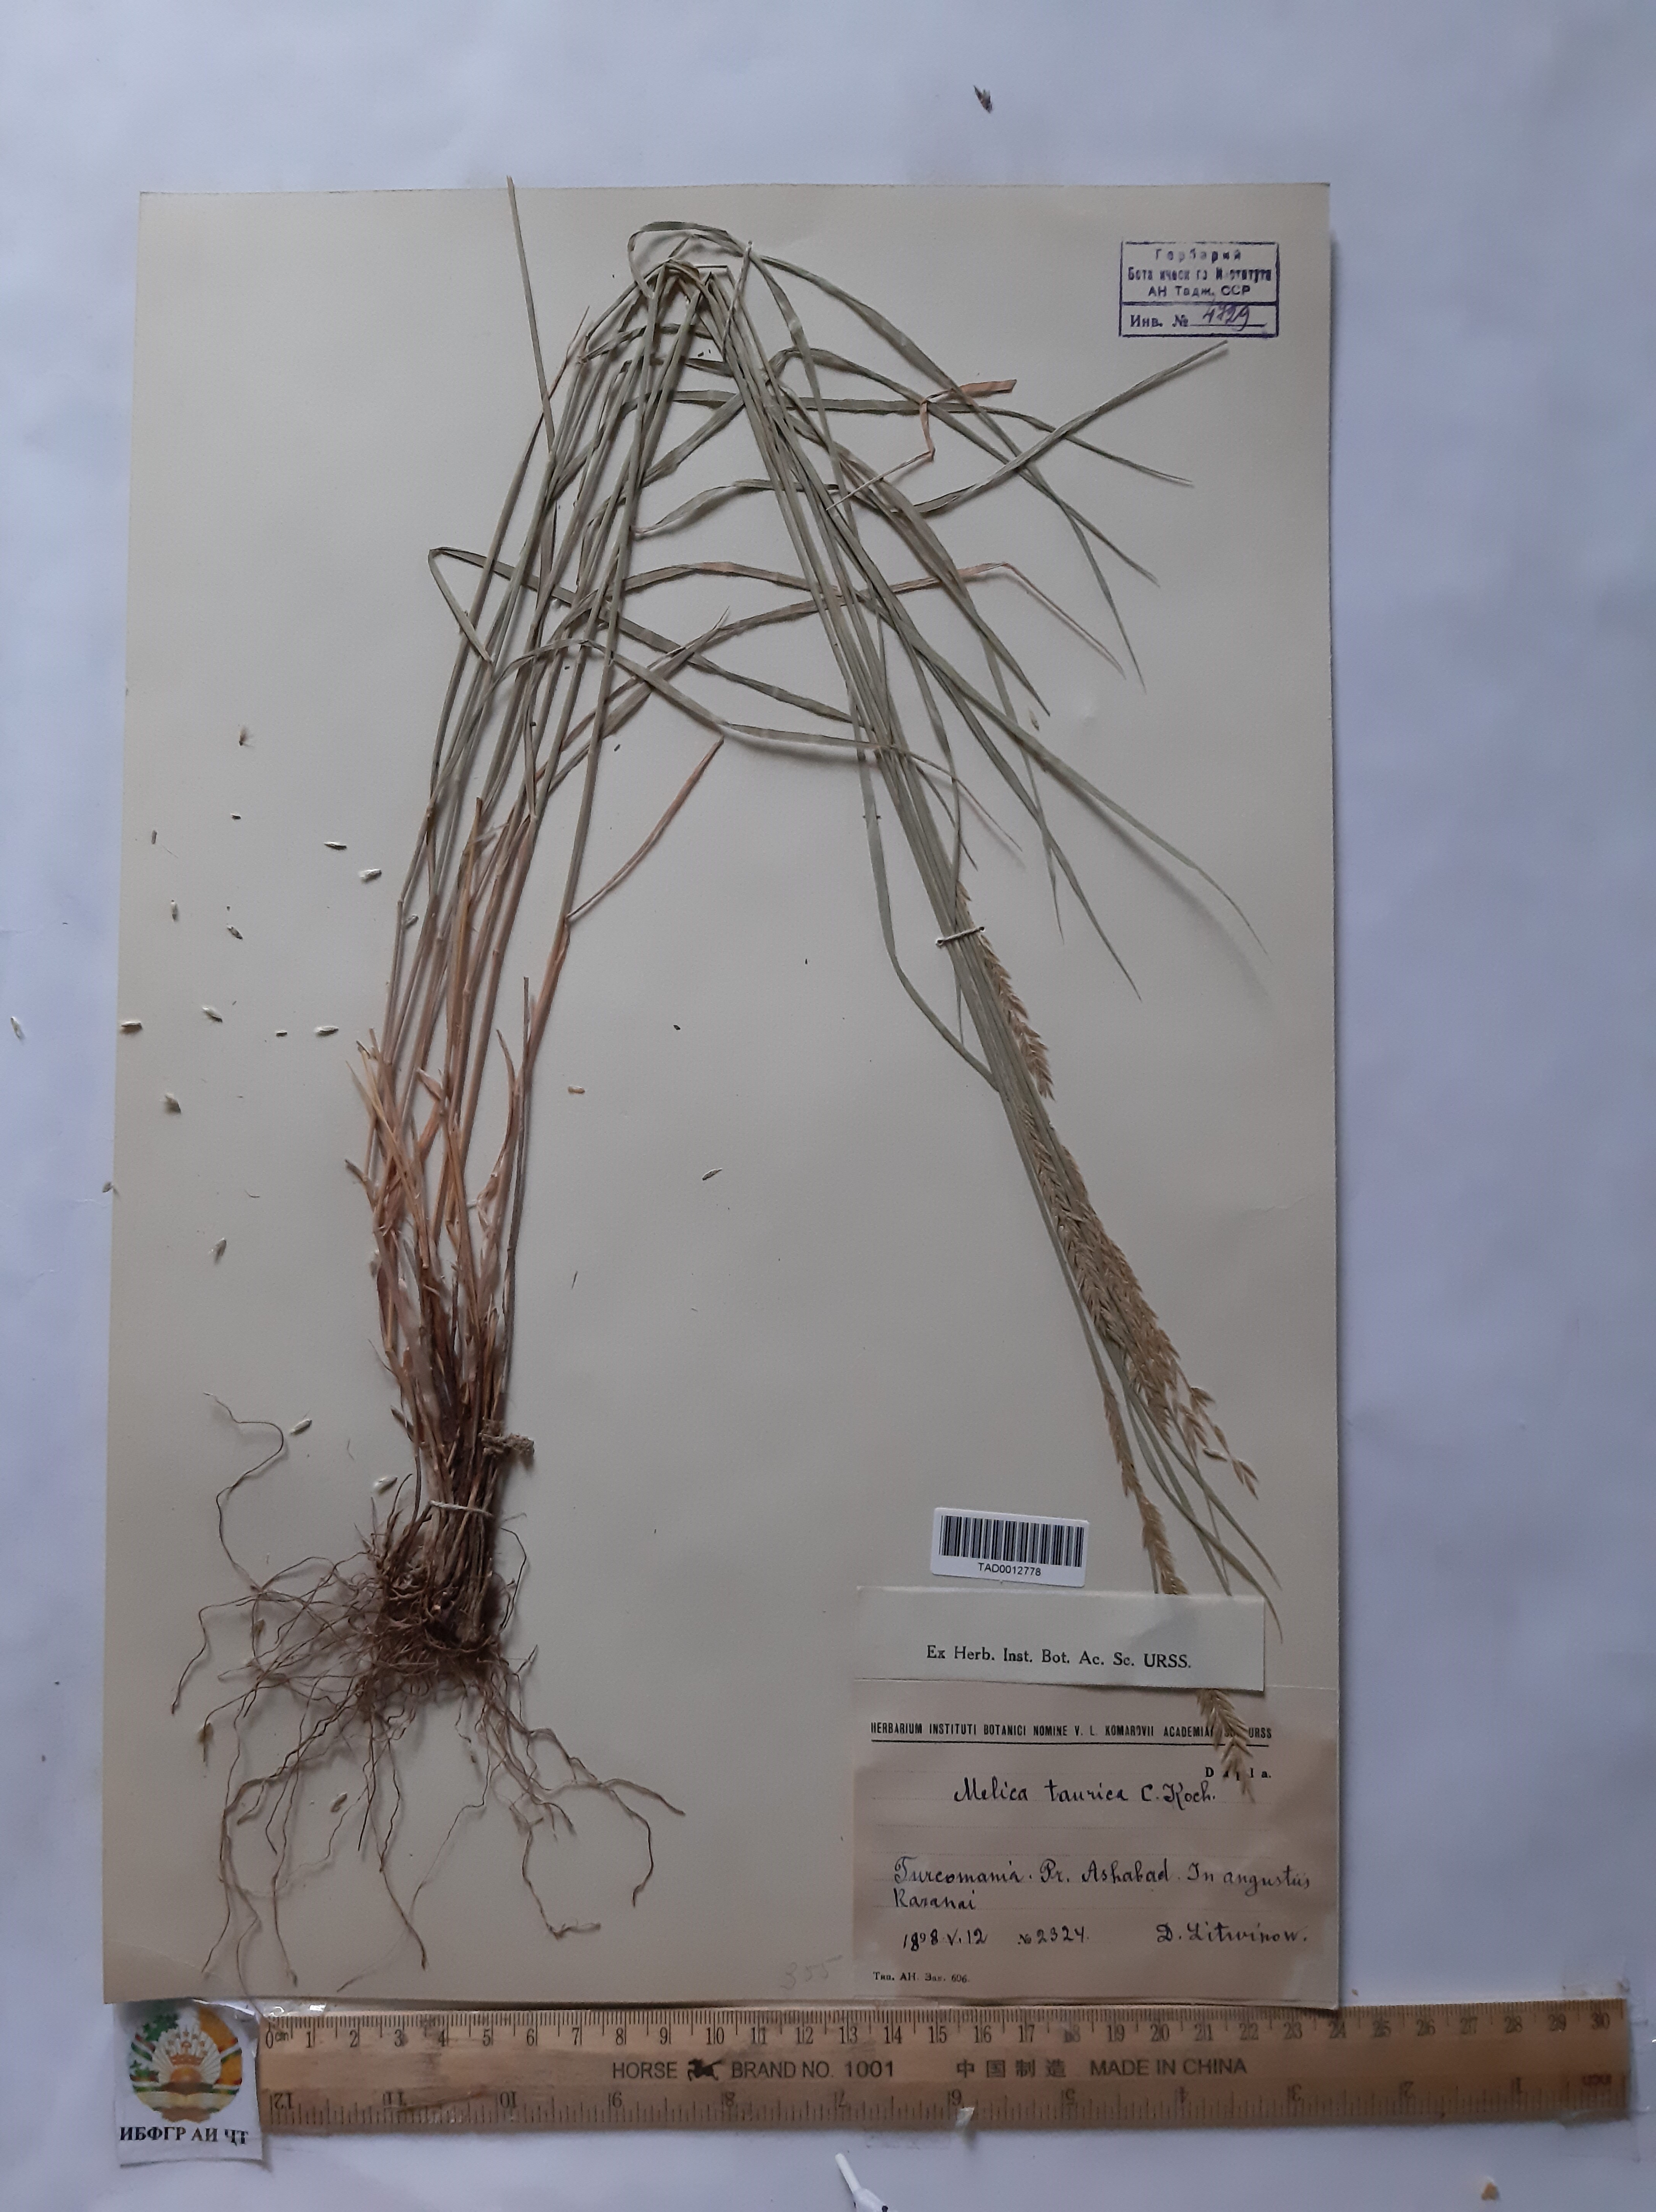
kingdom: Plantae
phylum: Tracheophyta
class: Liliopsida
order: Poales
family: Poaceae
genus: Melica
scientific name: Melica ciliata
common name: Hairy melicgrass
